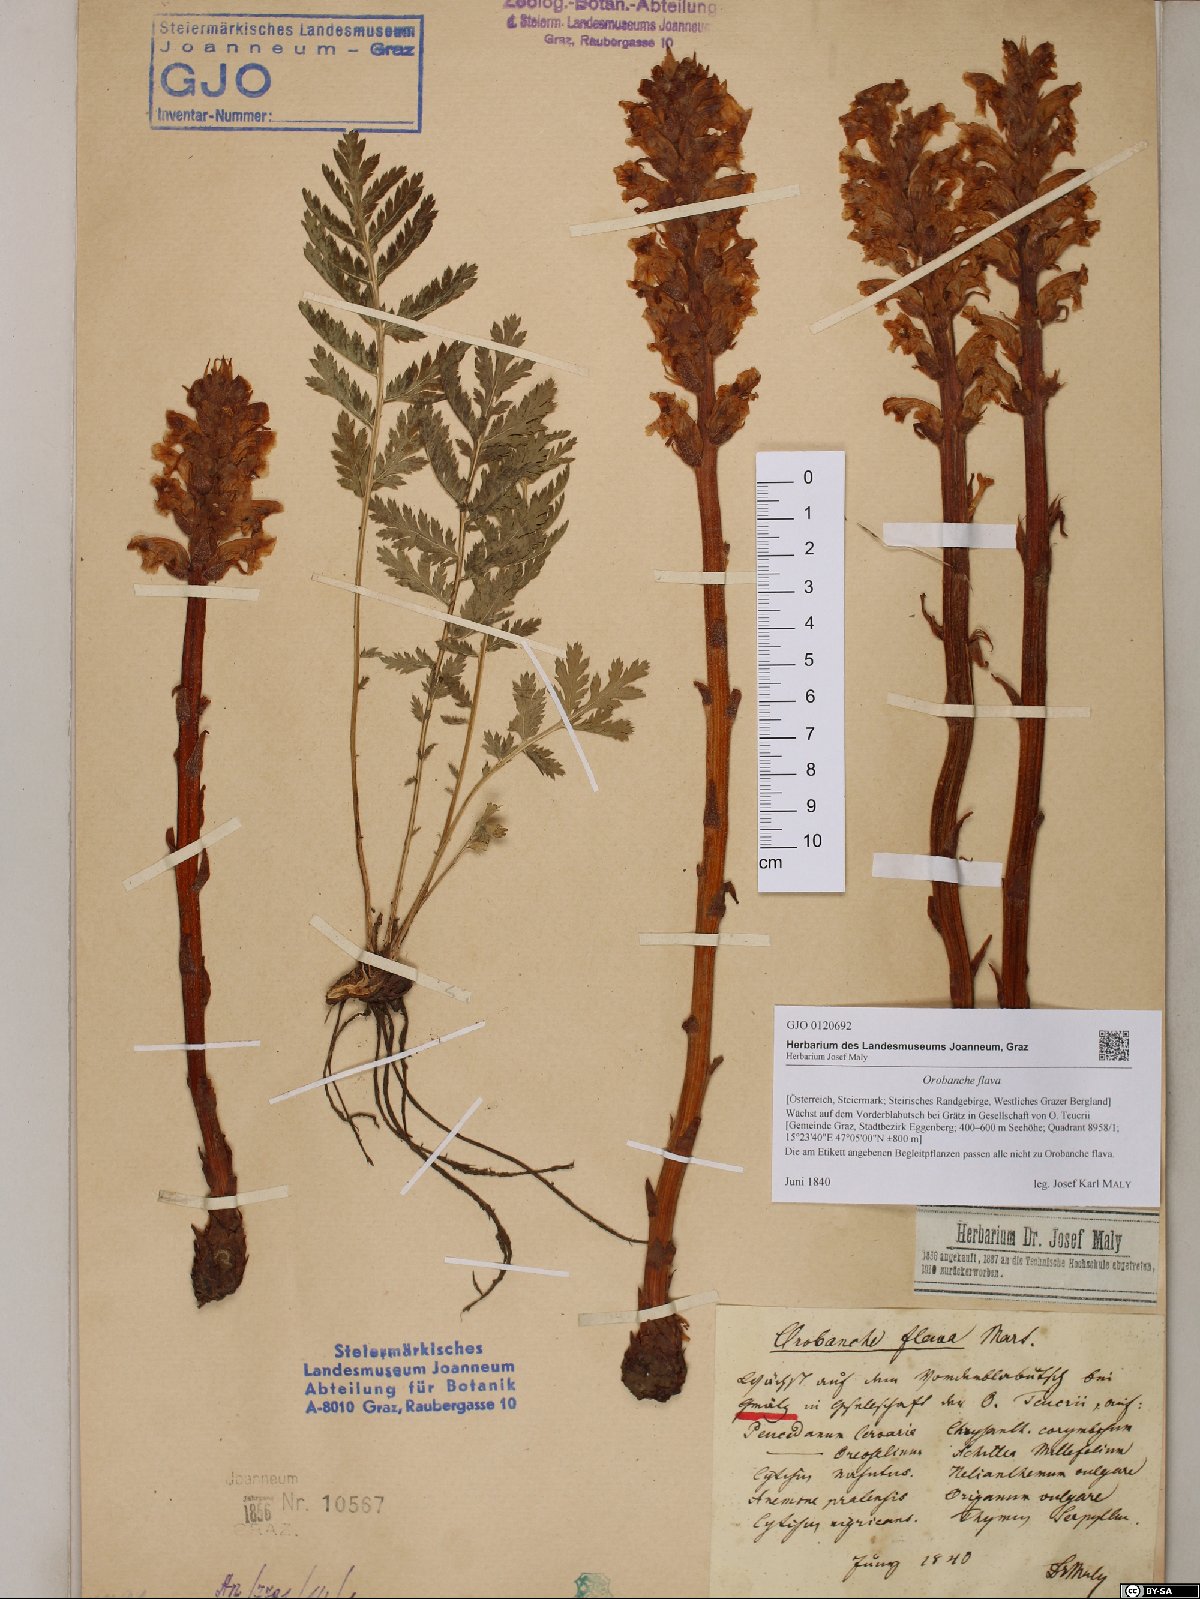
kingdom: Plantae
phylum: Tracheophyta
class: Magnoliopsida
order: Lamiales
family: Orobanchaceae
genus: Orobanche
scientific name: Orobanche flava
